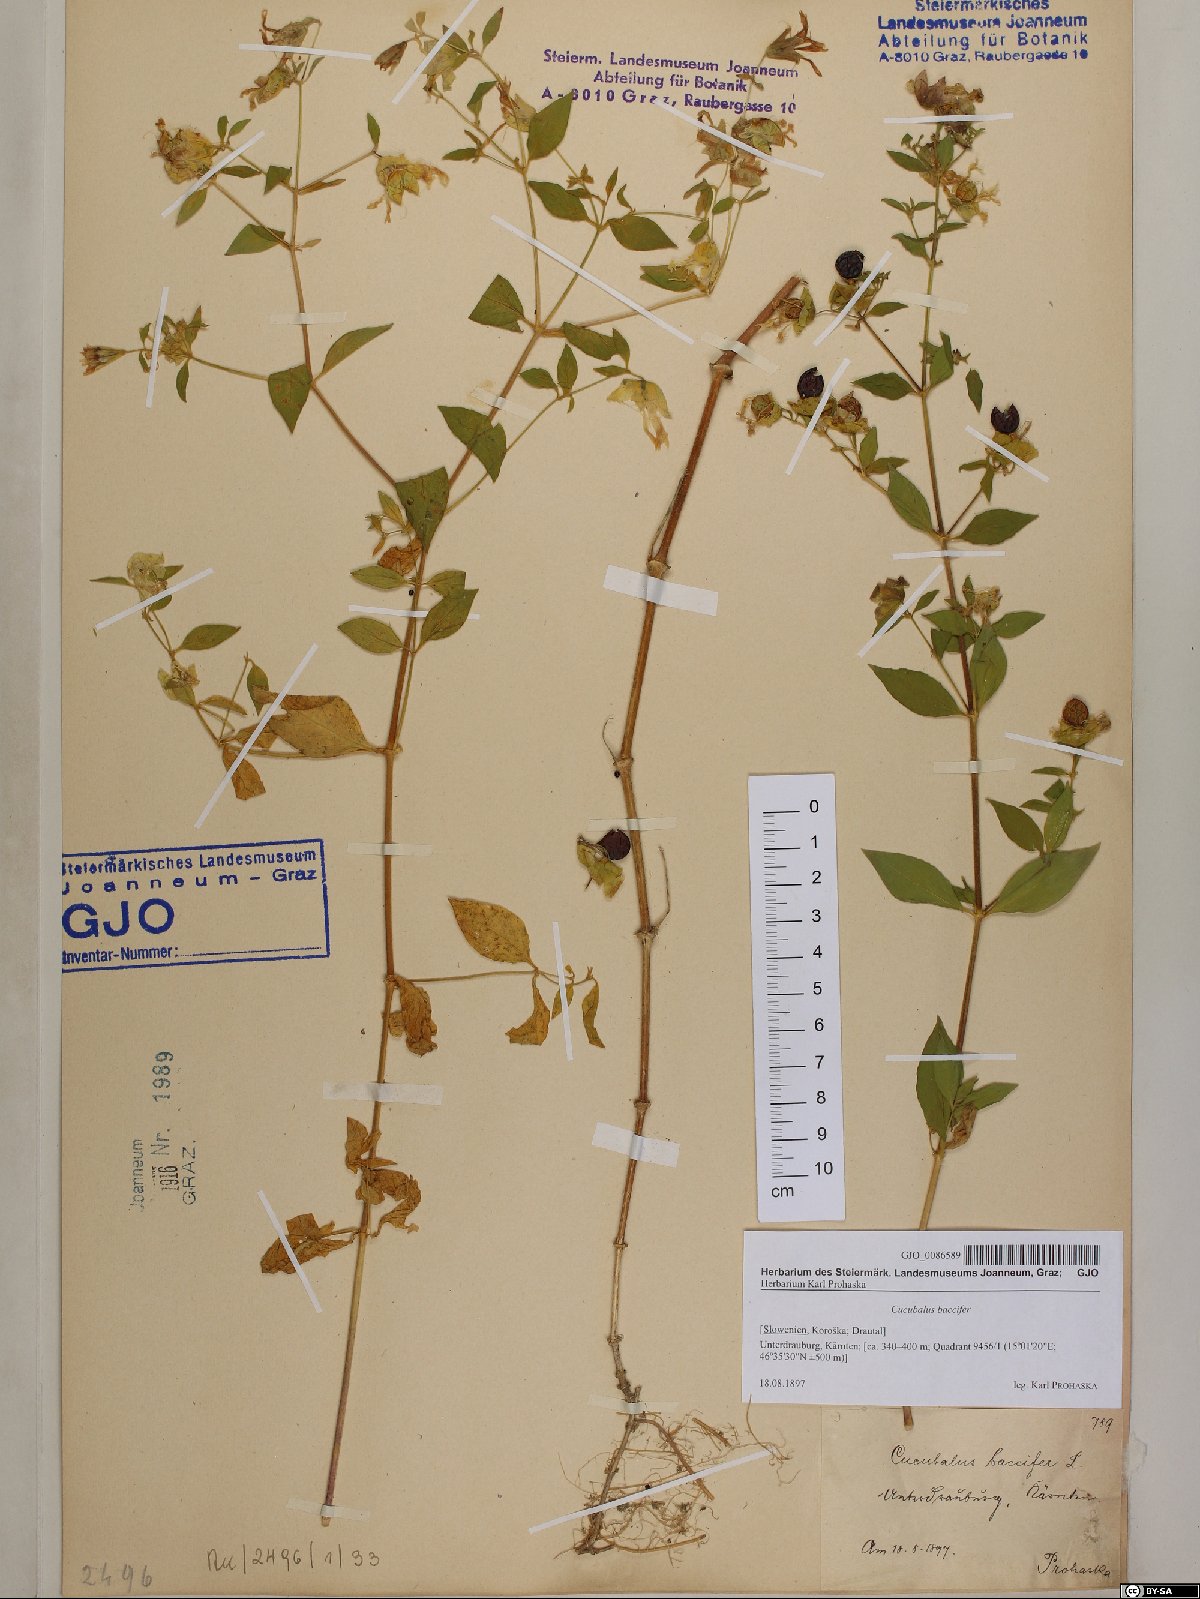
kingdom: Plantae
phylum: Tracheophyta
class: Magnoliopsida
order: Caryophyllales
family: Caryophyllaceae
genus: Silene
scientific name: Silene baccifera
